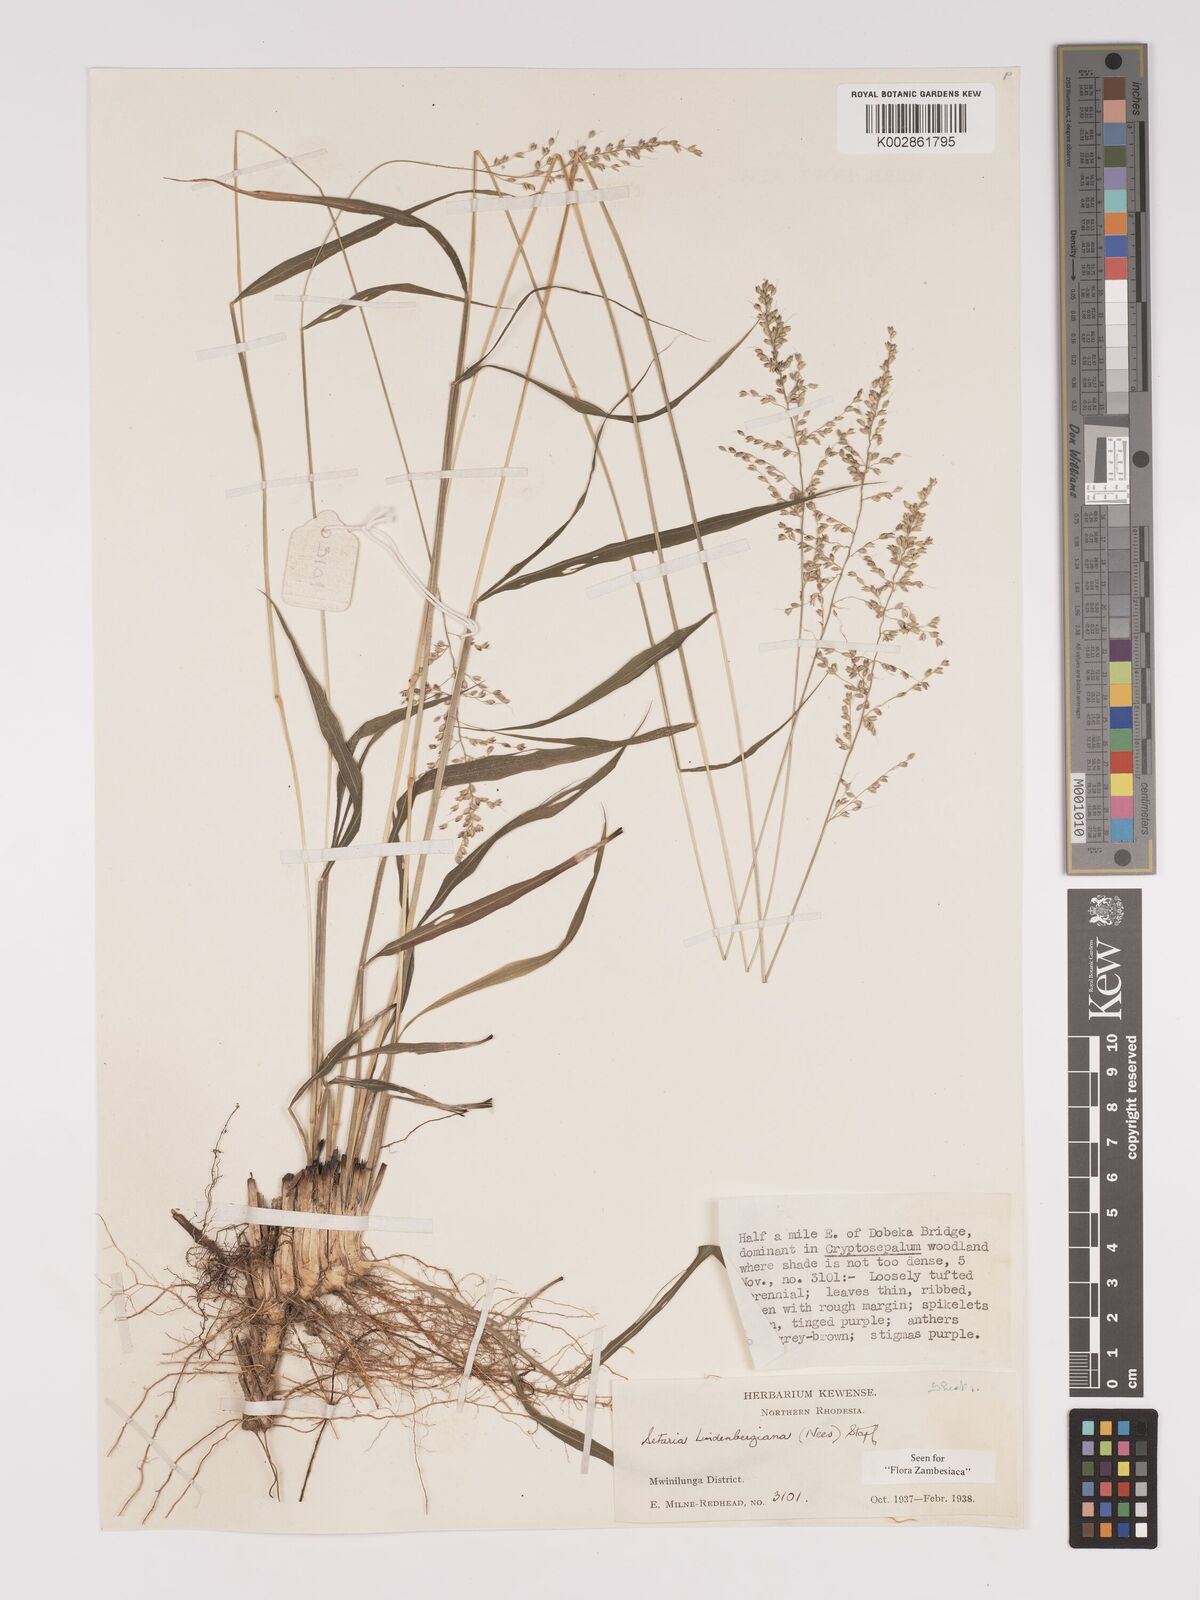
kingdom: Plantae
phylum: Tracheophyta
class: Liliopsida
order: Poales
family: Poaceae
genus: Setaria
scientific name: Setaria lindenbergiana
